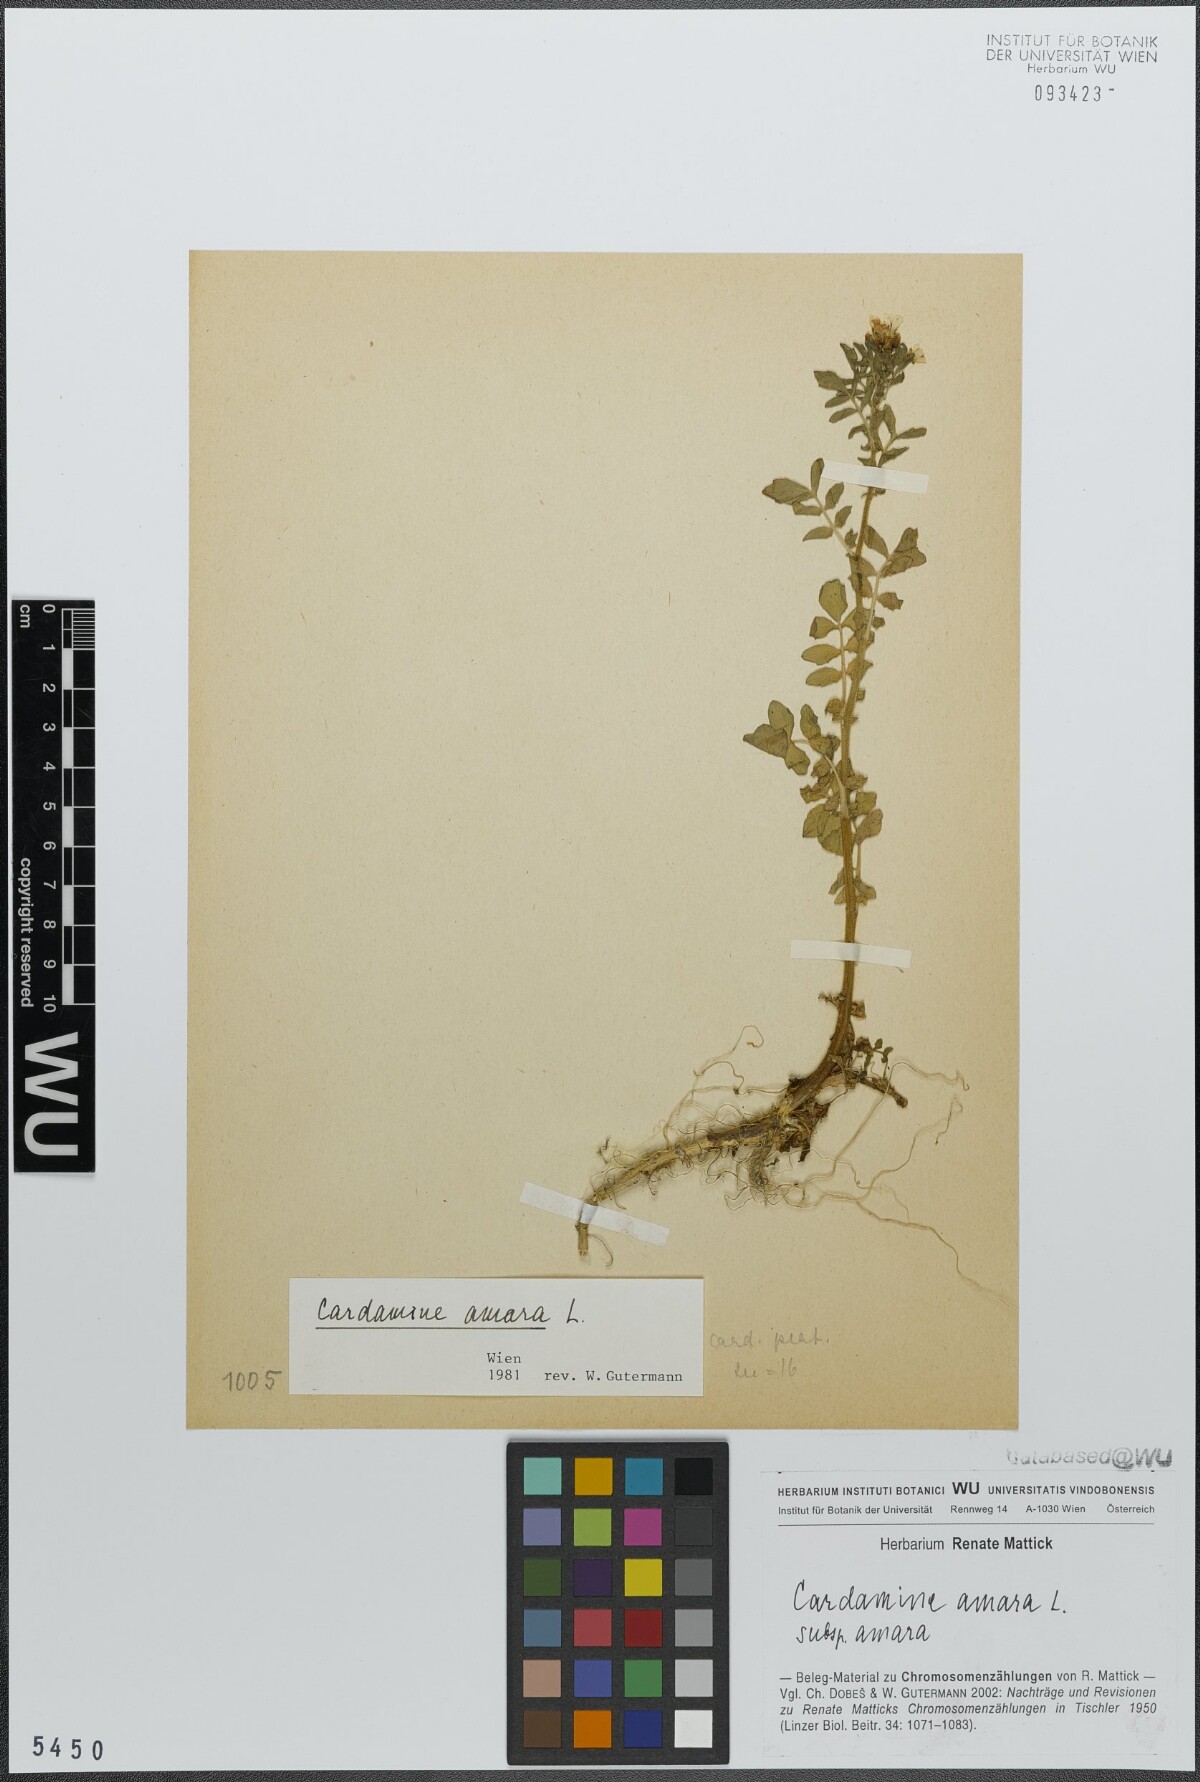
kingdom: Plantae
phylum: Tracheophyta
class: Magnoliopsida
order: Brassicales
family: Brassicaceae
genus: Cardamine
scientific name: Cardamine amara
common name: Large bitter-cress
